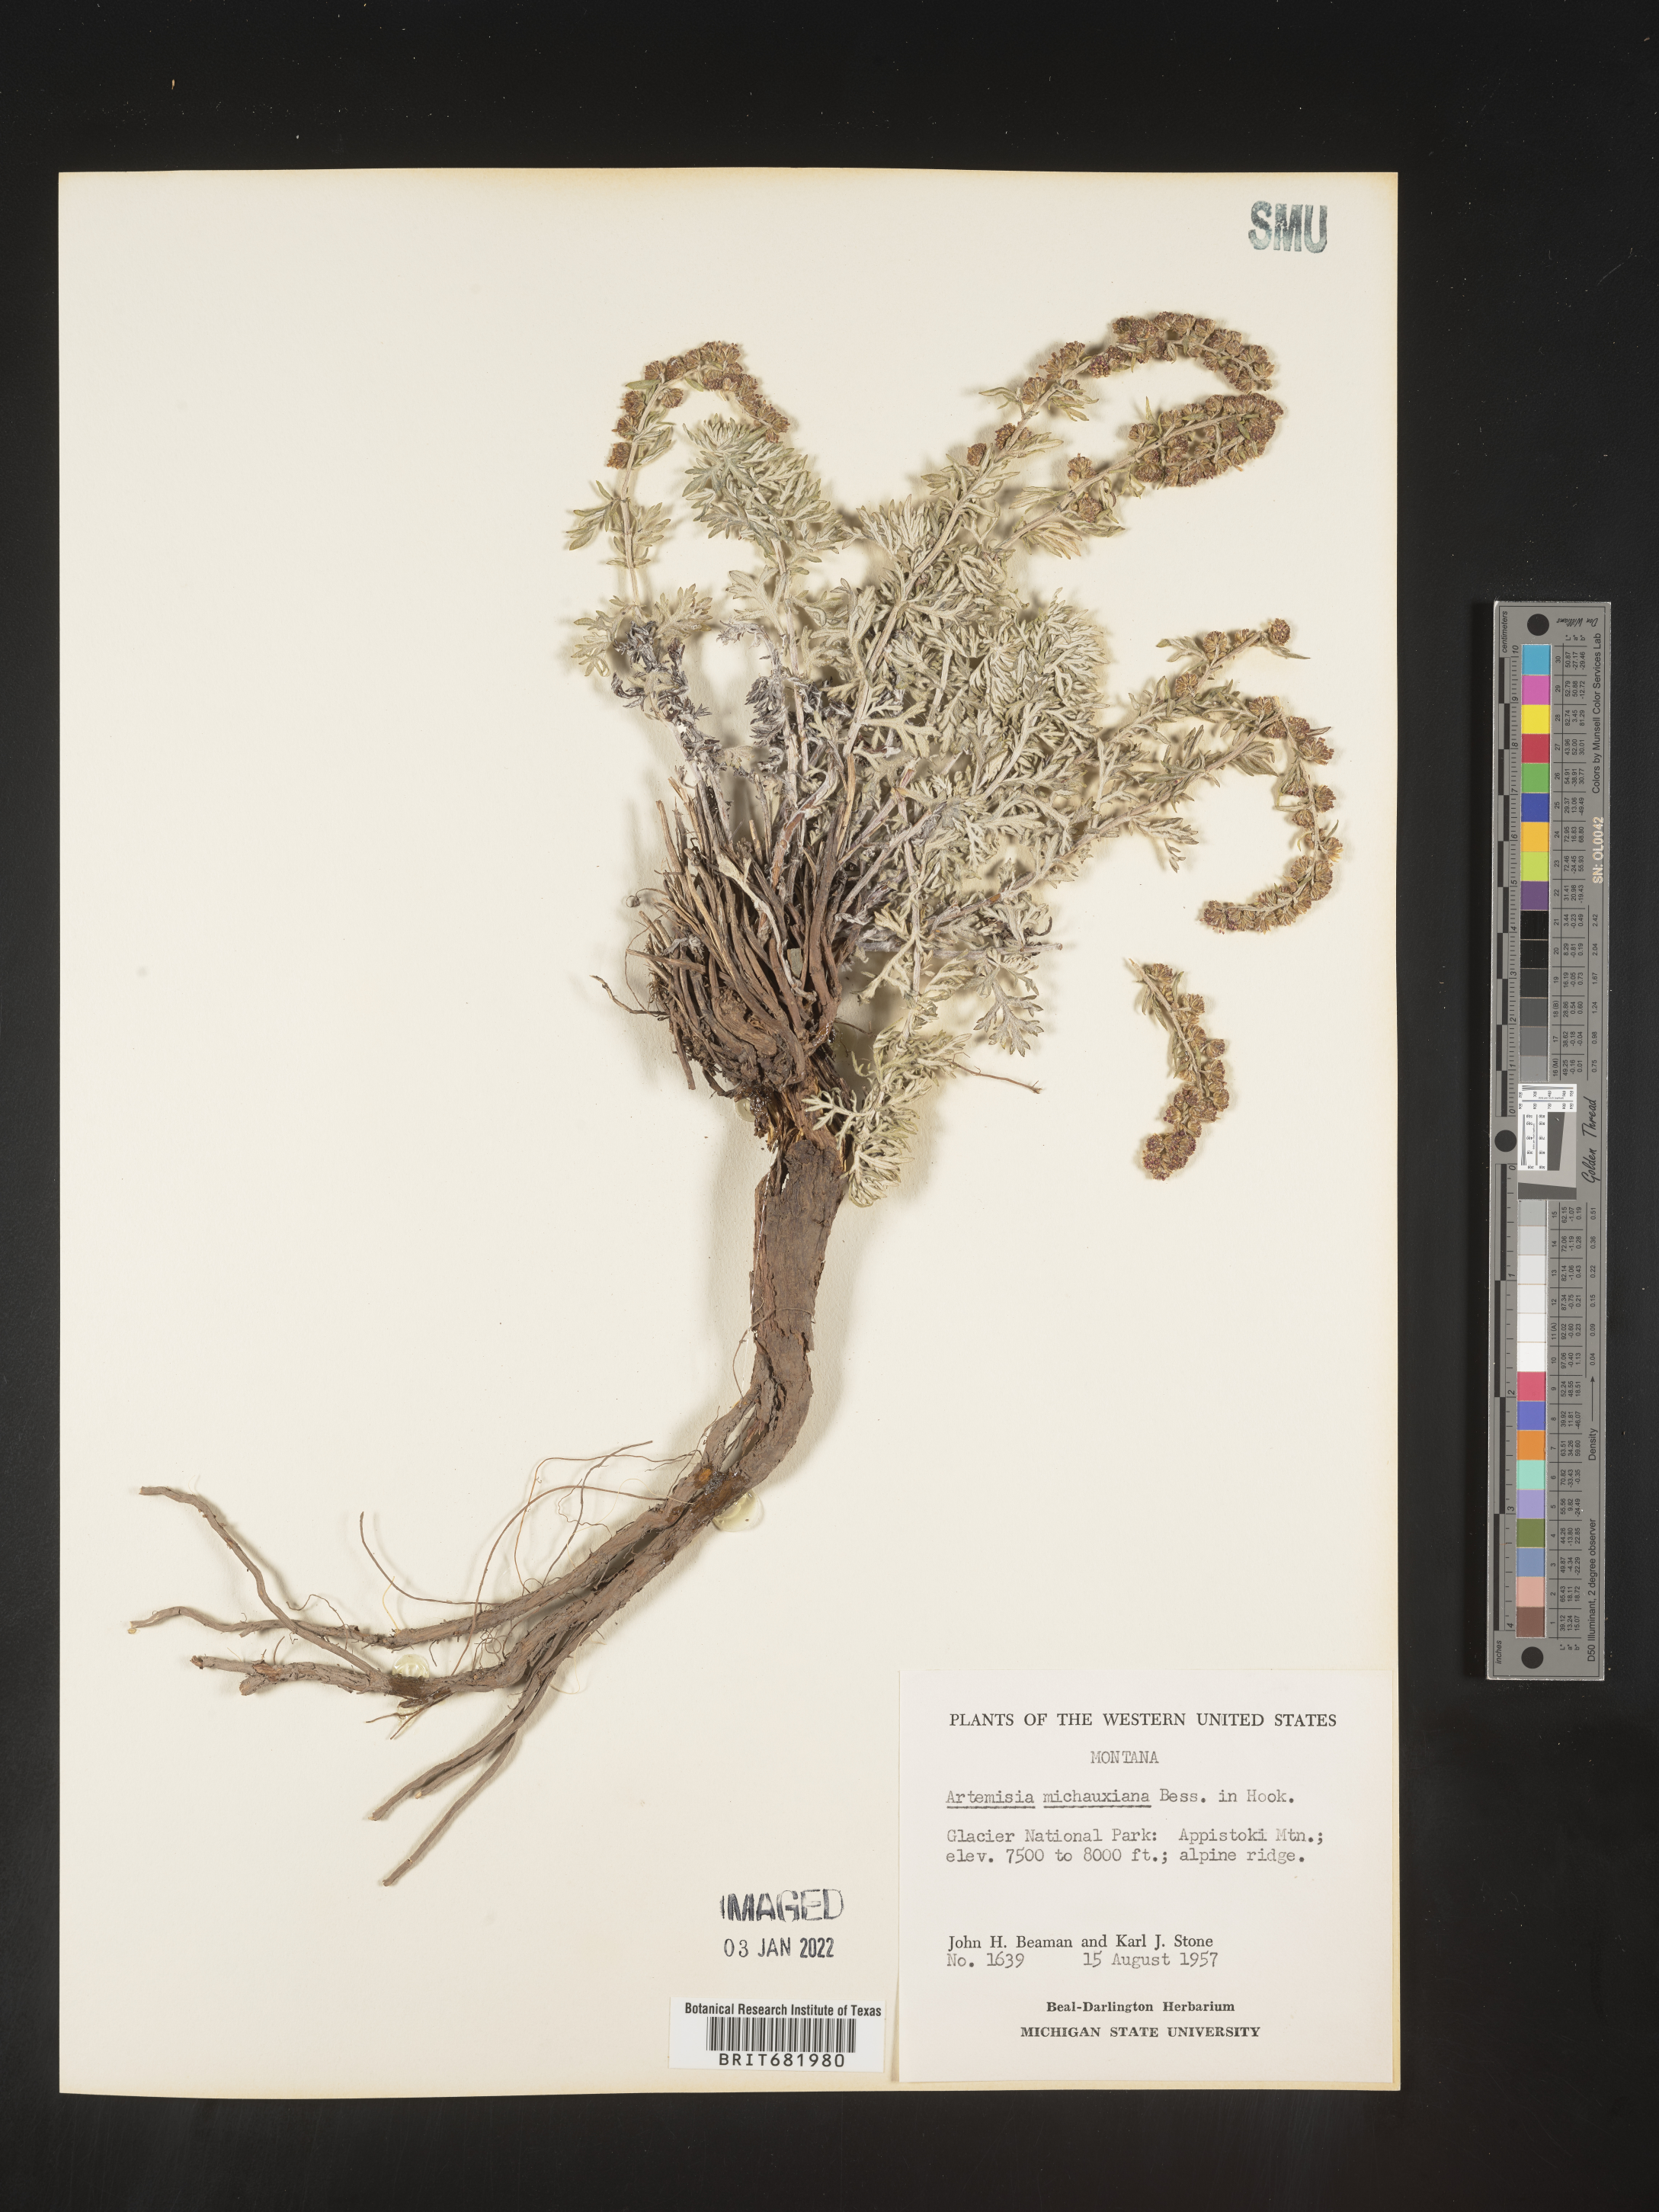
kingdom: Plantae
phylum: Tracheophyta
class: Magnoliopsida
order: Asterales
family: Asteraceae
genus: Artemisia
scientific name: Artemisia michauxiana
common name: Lemon sagewort
